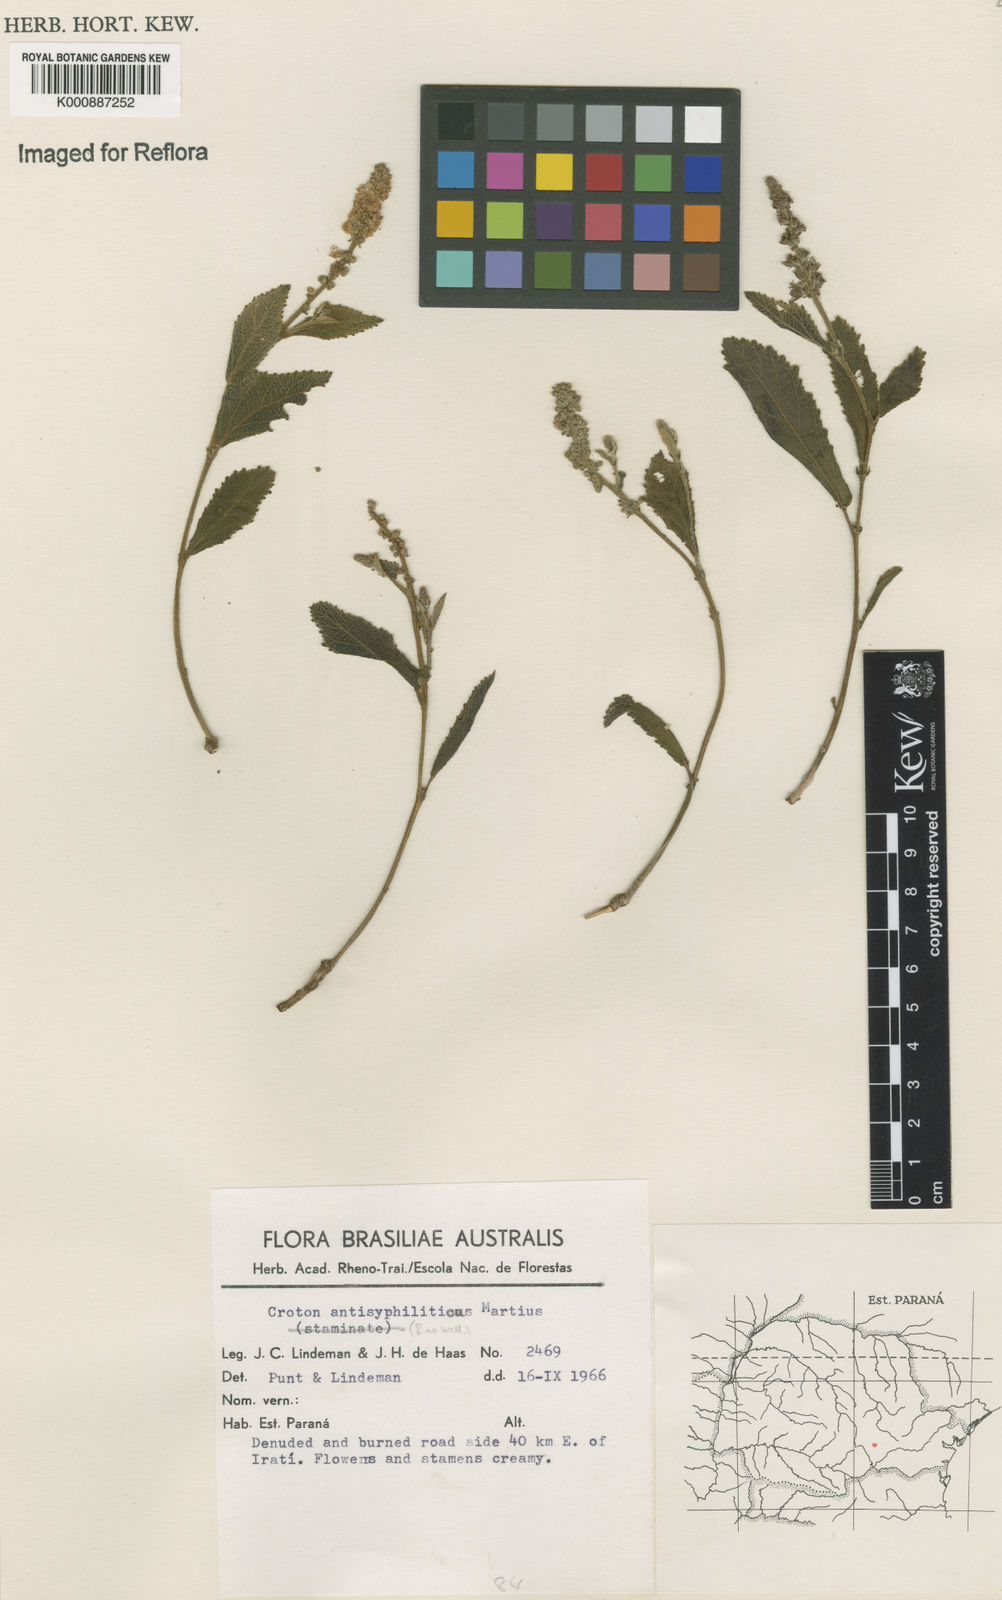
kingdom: Plantae
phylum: Tracheophyta
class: Magnoliopsida
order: Malpighiales
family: Euphorbiaceae
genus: Croton
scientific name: Croton antisyphiliticus
